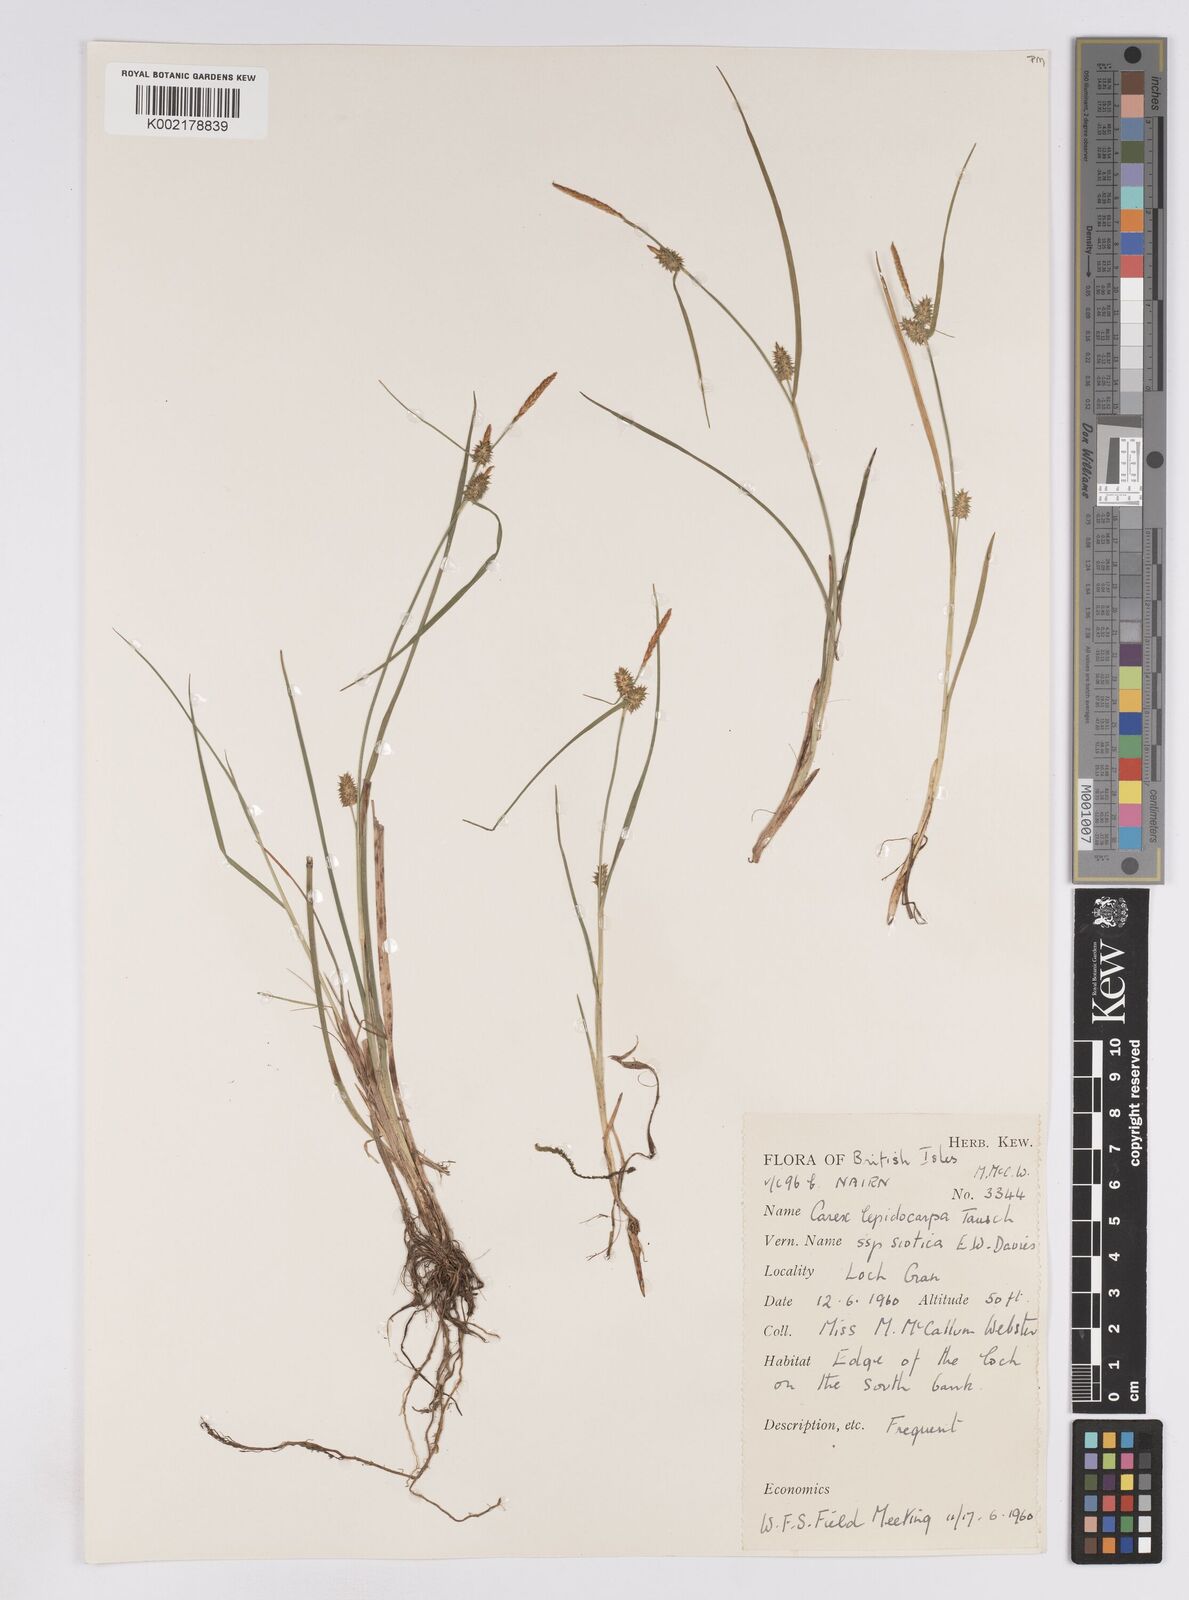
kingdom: Plantae
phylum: Tracheophyta
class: Liliopsida
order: Poales
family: Cyperaceae
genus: Carex
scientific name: Carex lepidocarpa
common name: Long-stalked yellow-sedge
